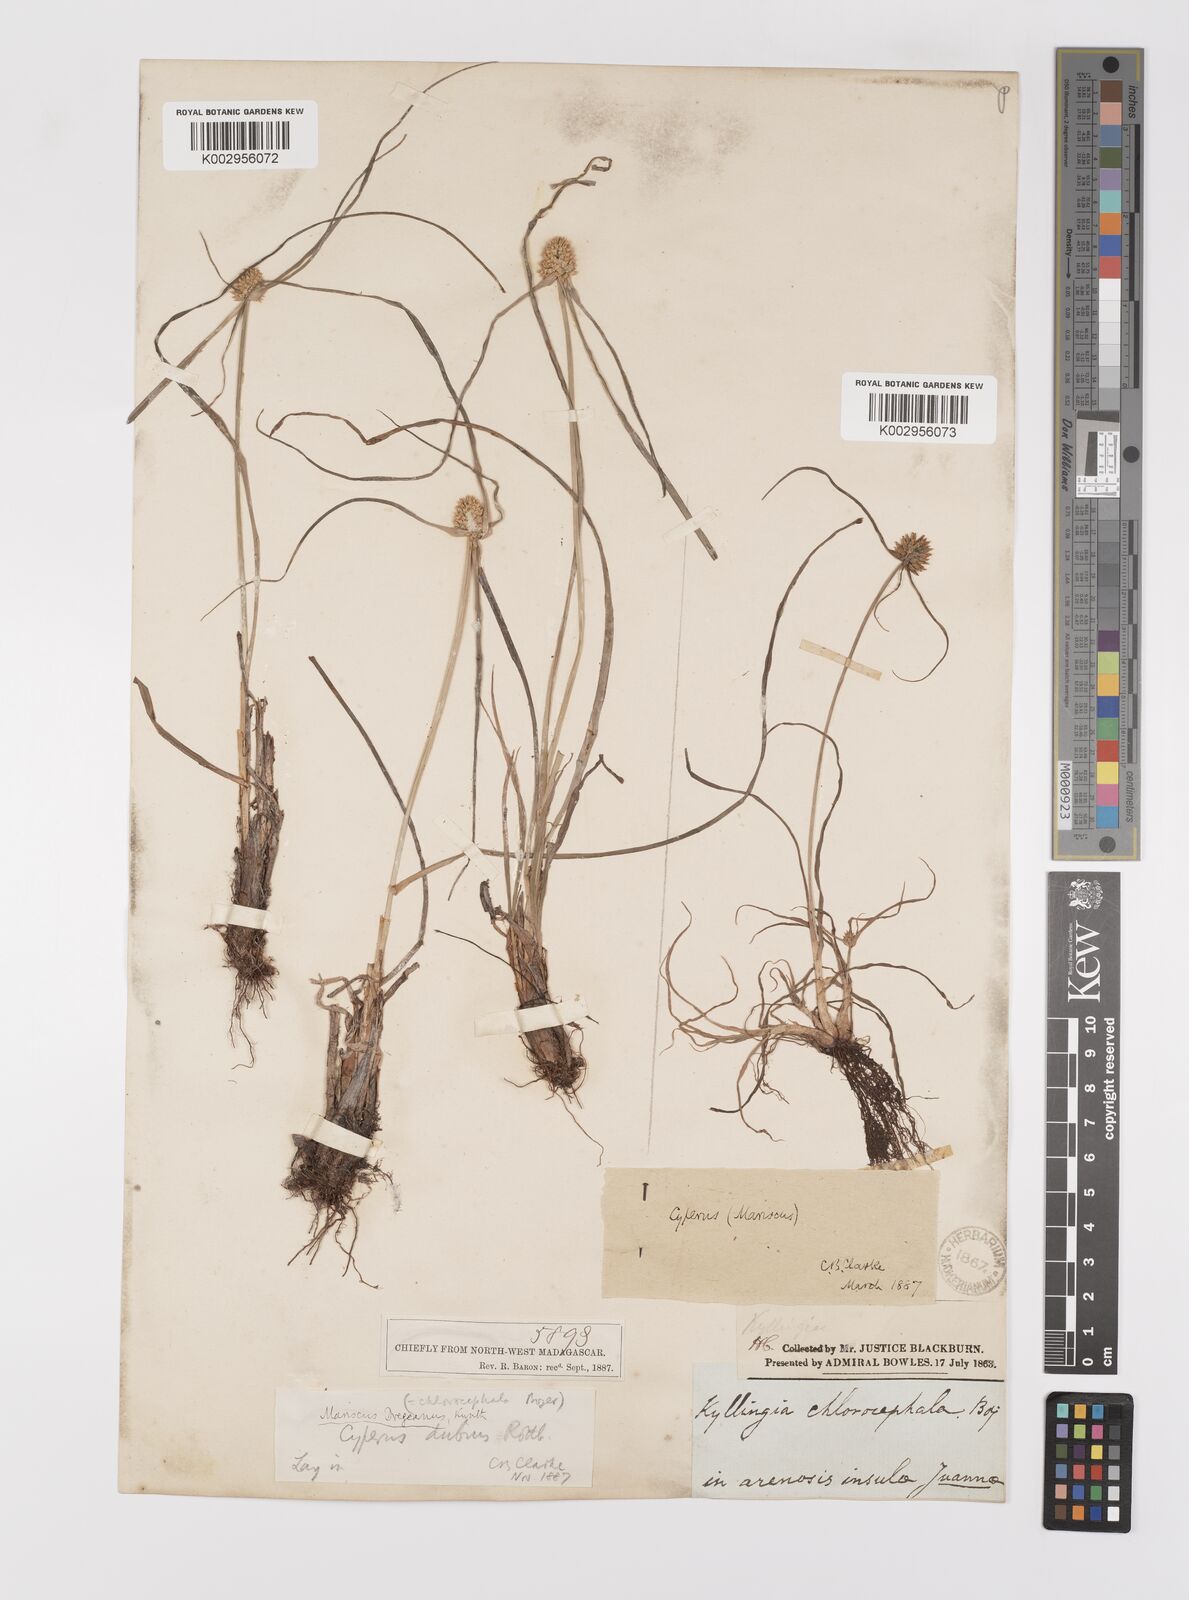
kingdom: Plantae
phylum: Tracheophyta
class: Liliopsida
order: Poales
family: Cyperaceae
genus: Cyperus
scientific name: Cyperus dubius
